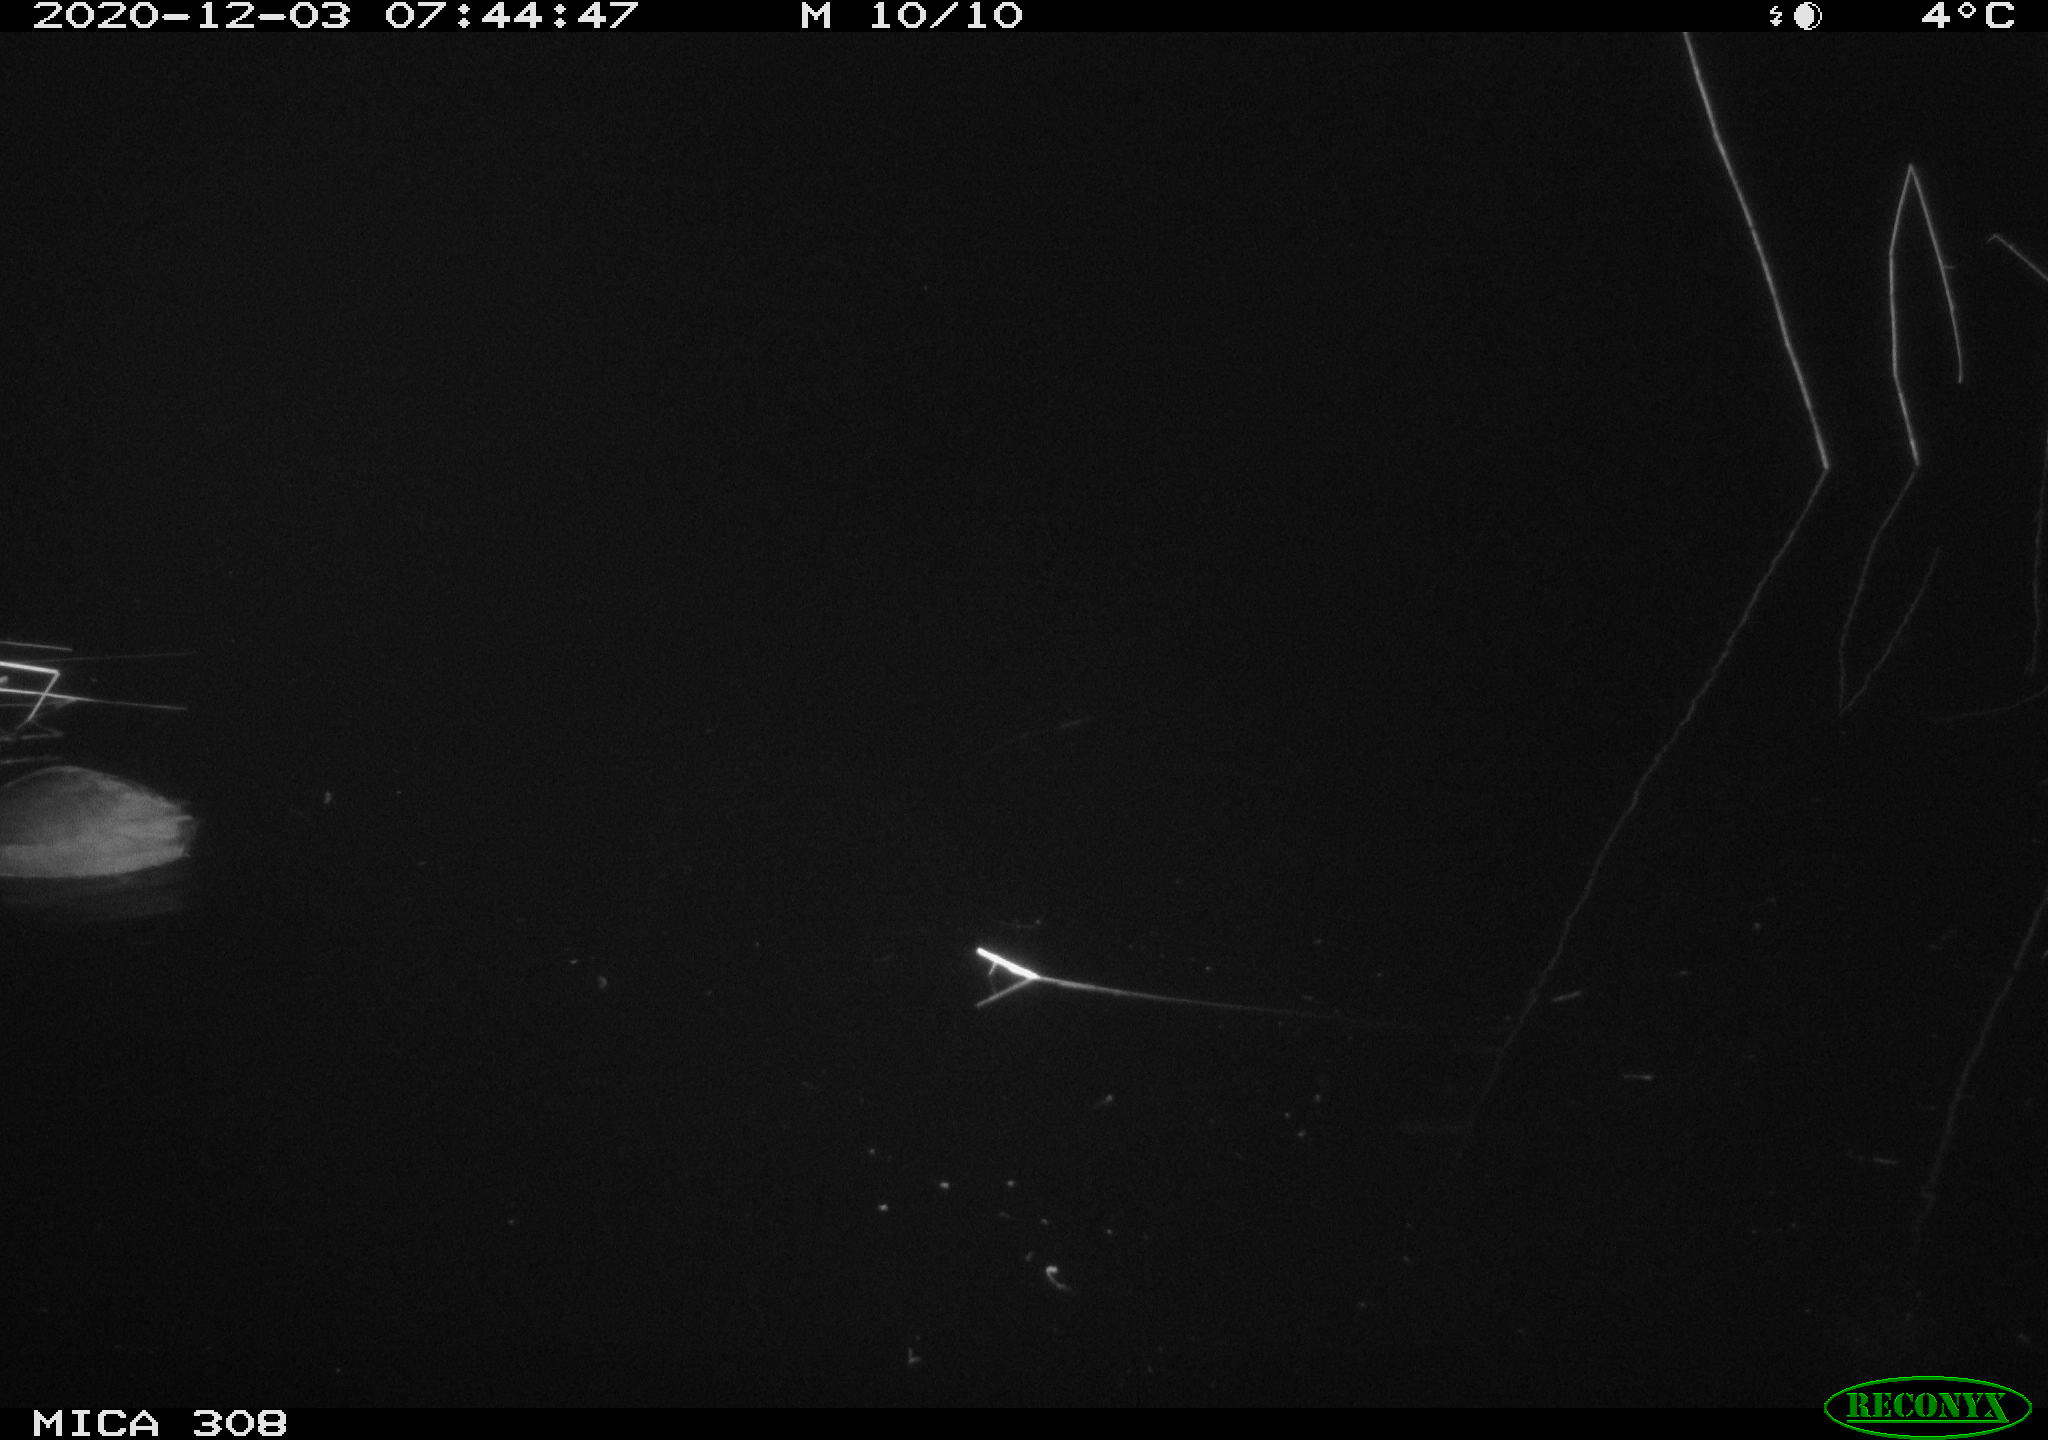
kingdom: Animalia
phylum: Chordata
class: Aves
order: Gruiformes
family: Rallidae
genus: Fulica
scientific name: Fulica atra
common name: Eurasian coot
